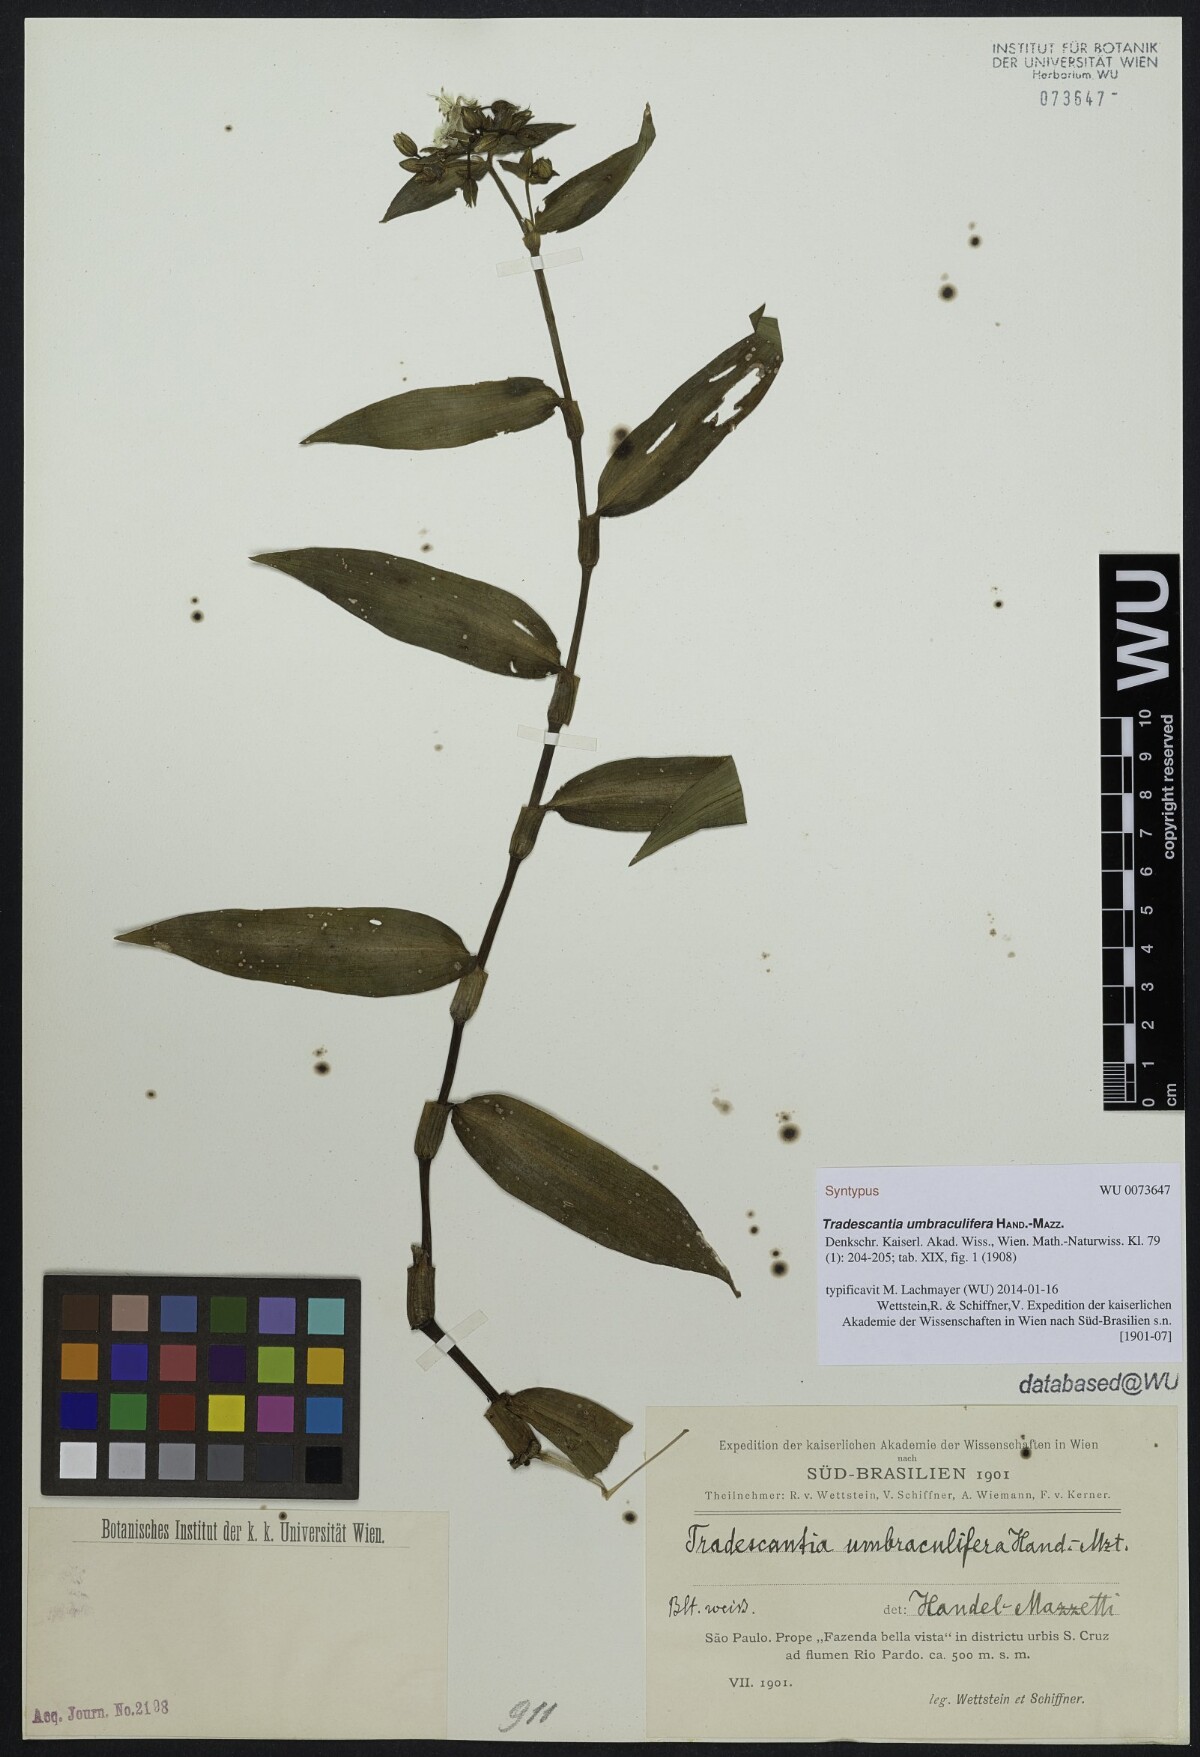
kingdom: Plantae
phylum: Tracheophyta
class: Liliopsida
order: Commelinales
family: Commelinaceae
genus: Tradescantia
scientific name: Tradescantia umbraculifera
